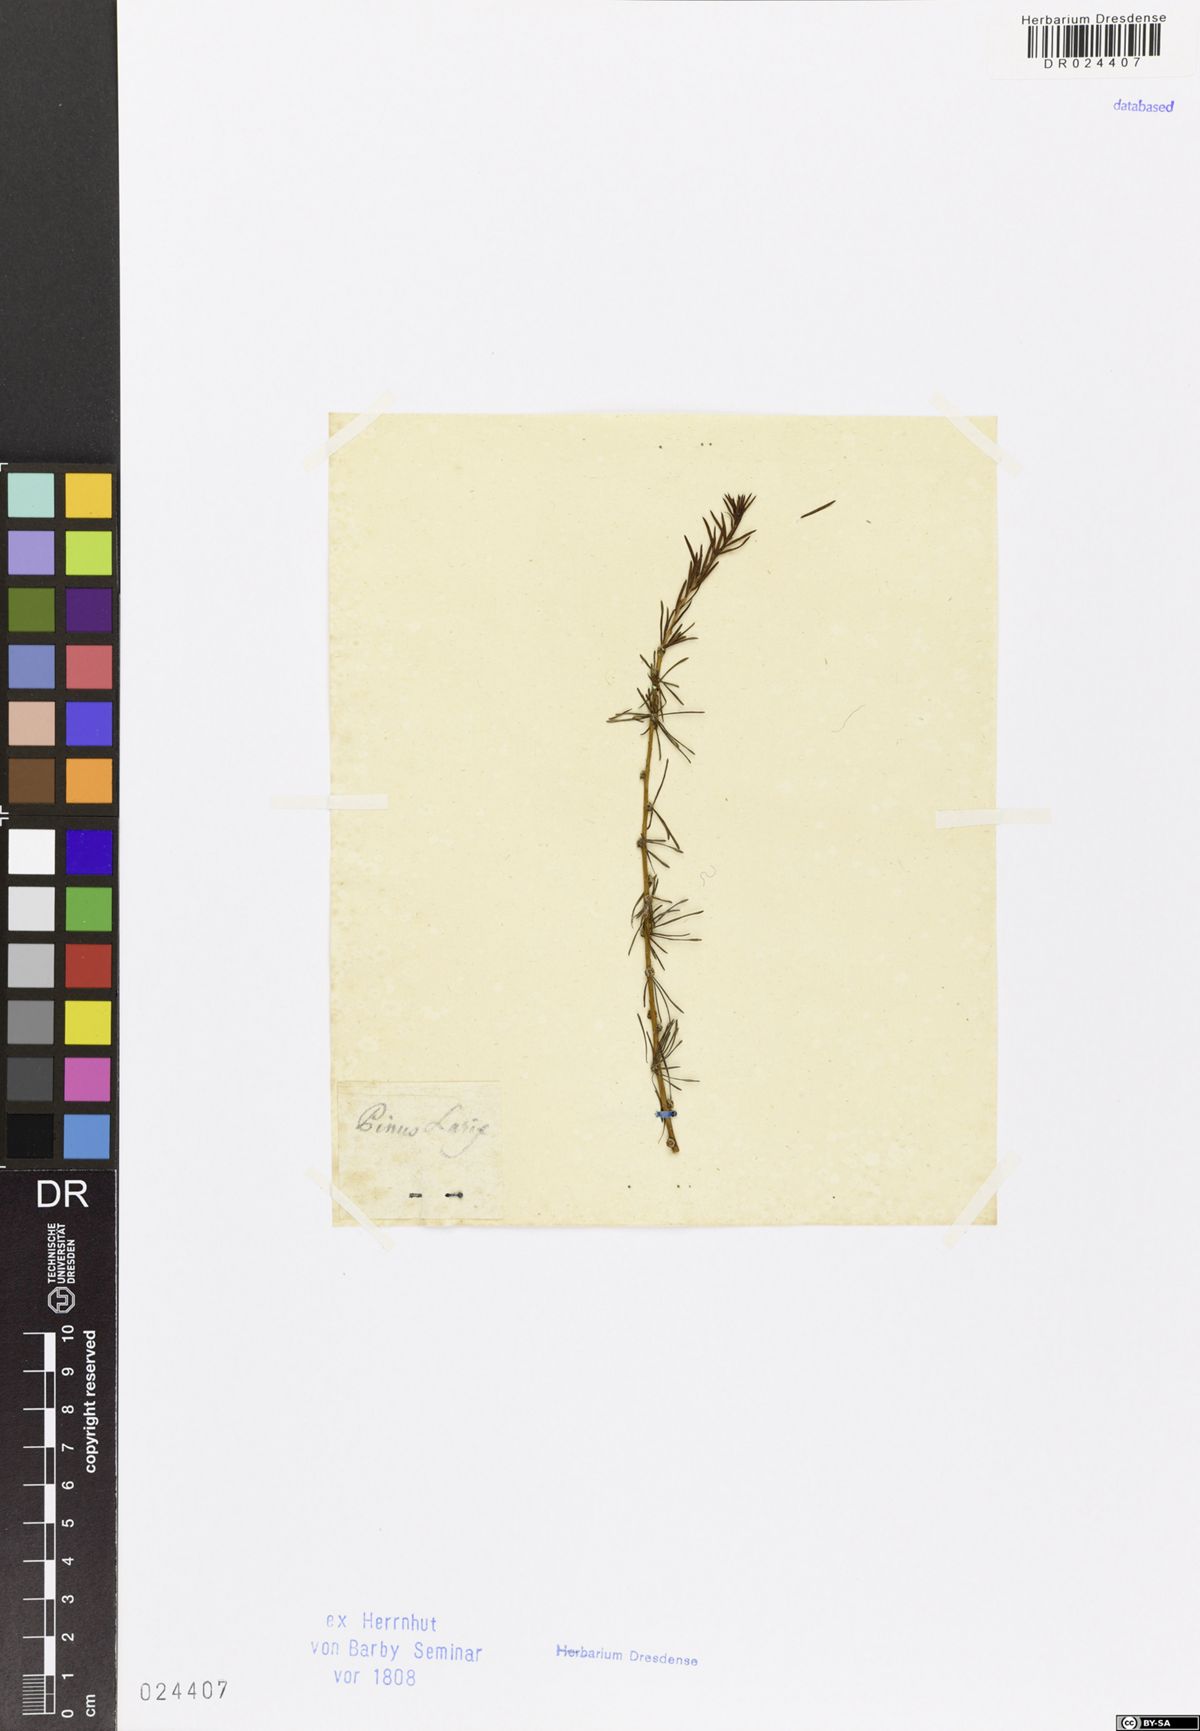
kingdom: Plantae
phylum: Tracheophyta
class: Pinopsida
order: Pinales
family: Pinaceae
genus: Larix
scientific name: Larix decidua
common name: European larch
